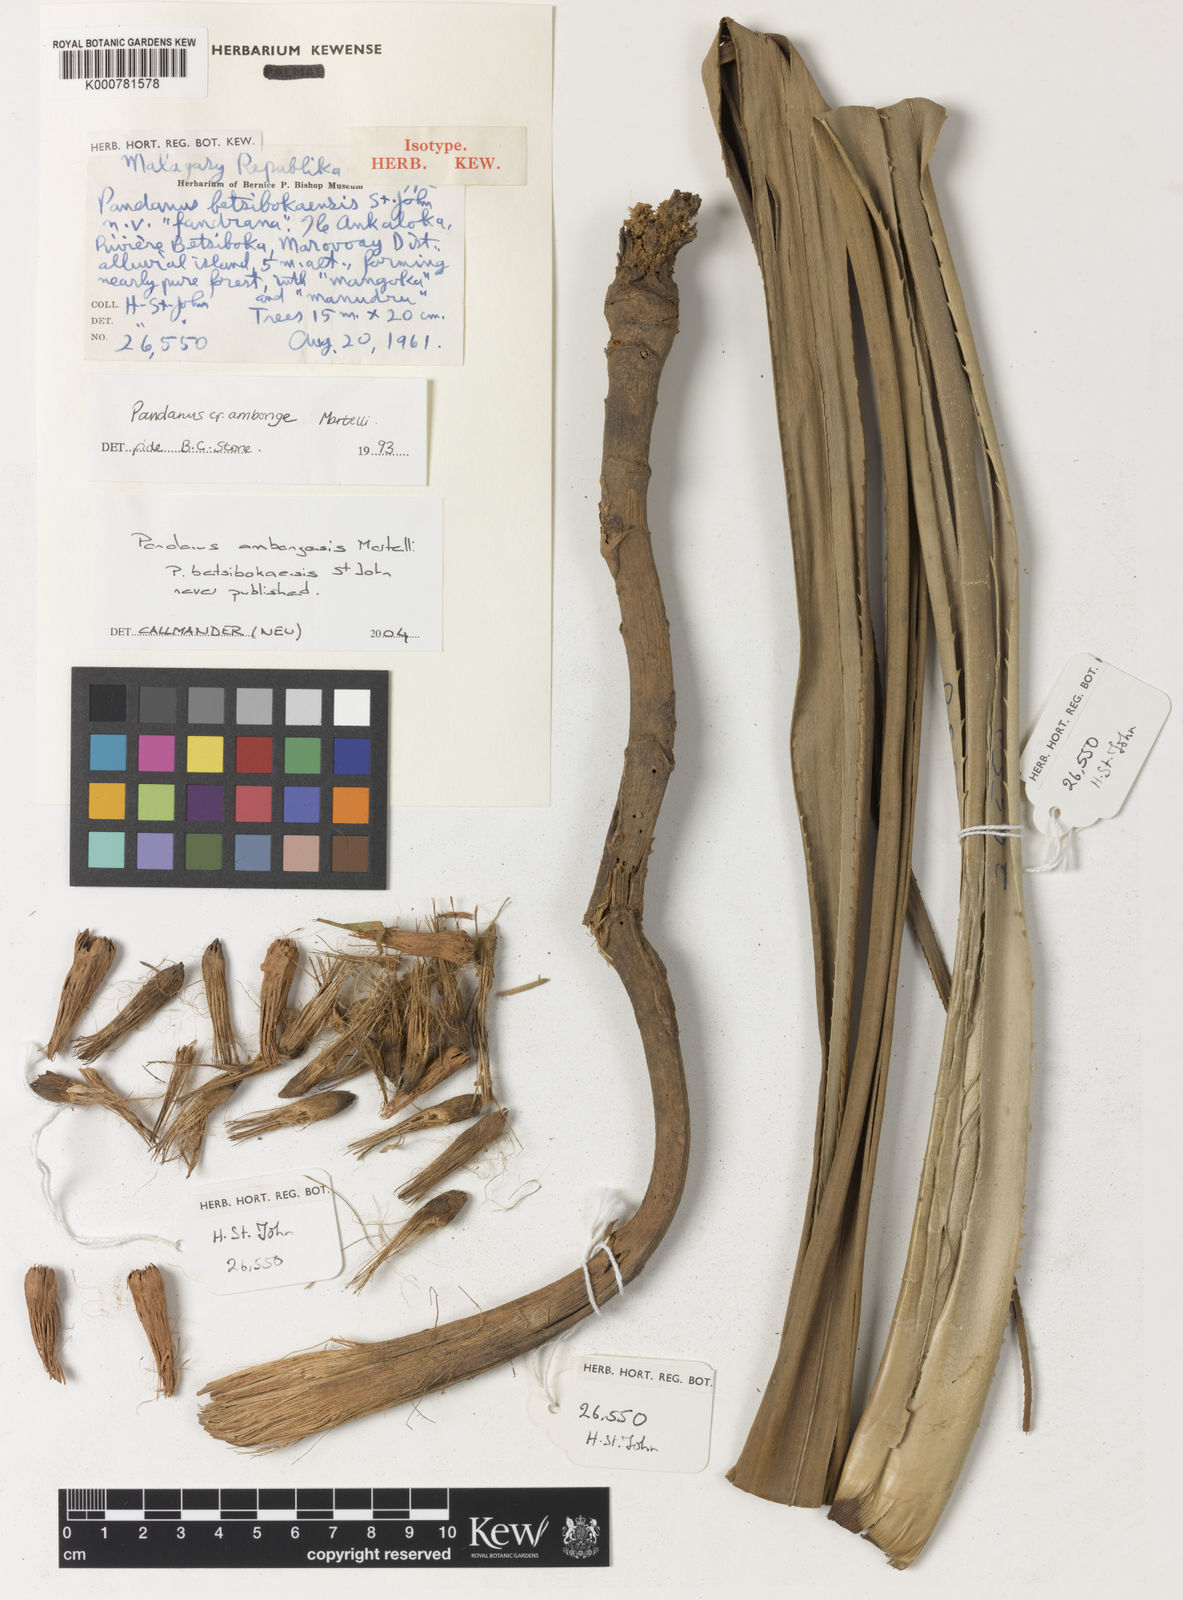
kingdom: Plantae
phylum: Tracheophyta
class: Liliopsida
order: Pandanales
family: Pandanaceae
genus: Pandanus
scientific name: Pandanus ambongensis
